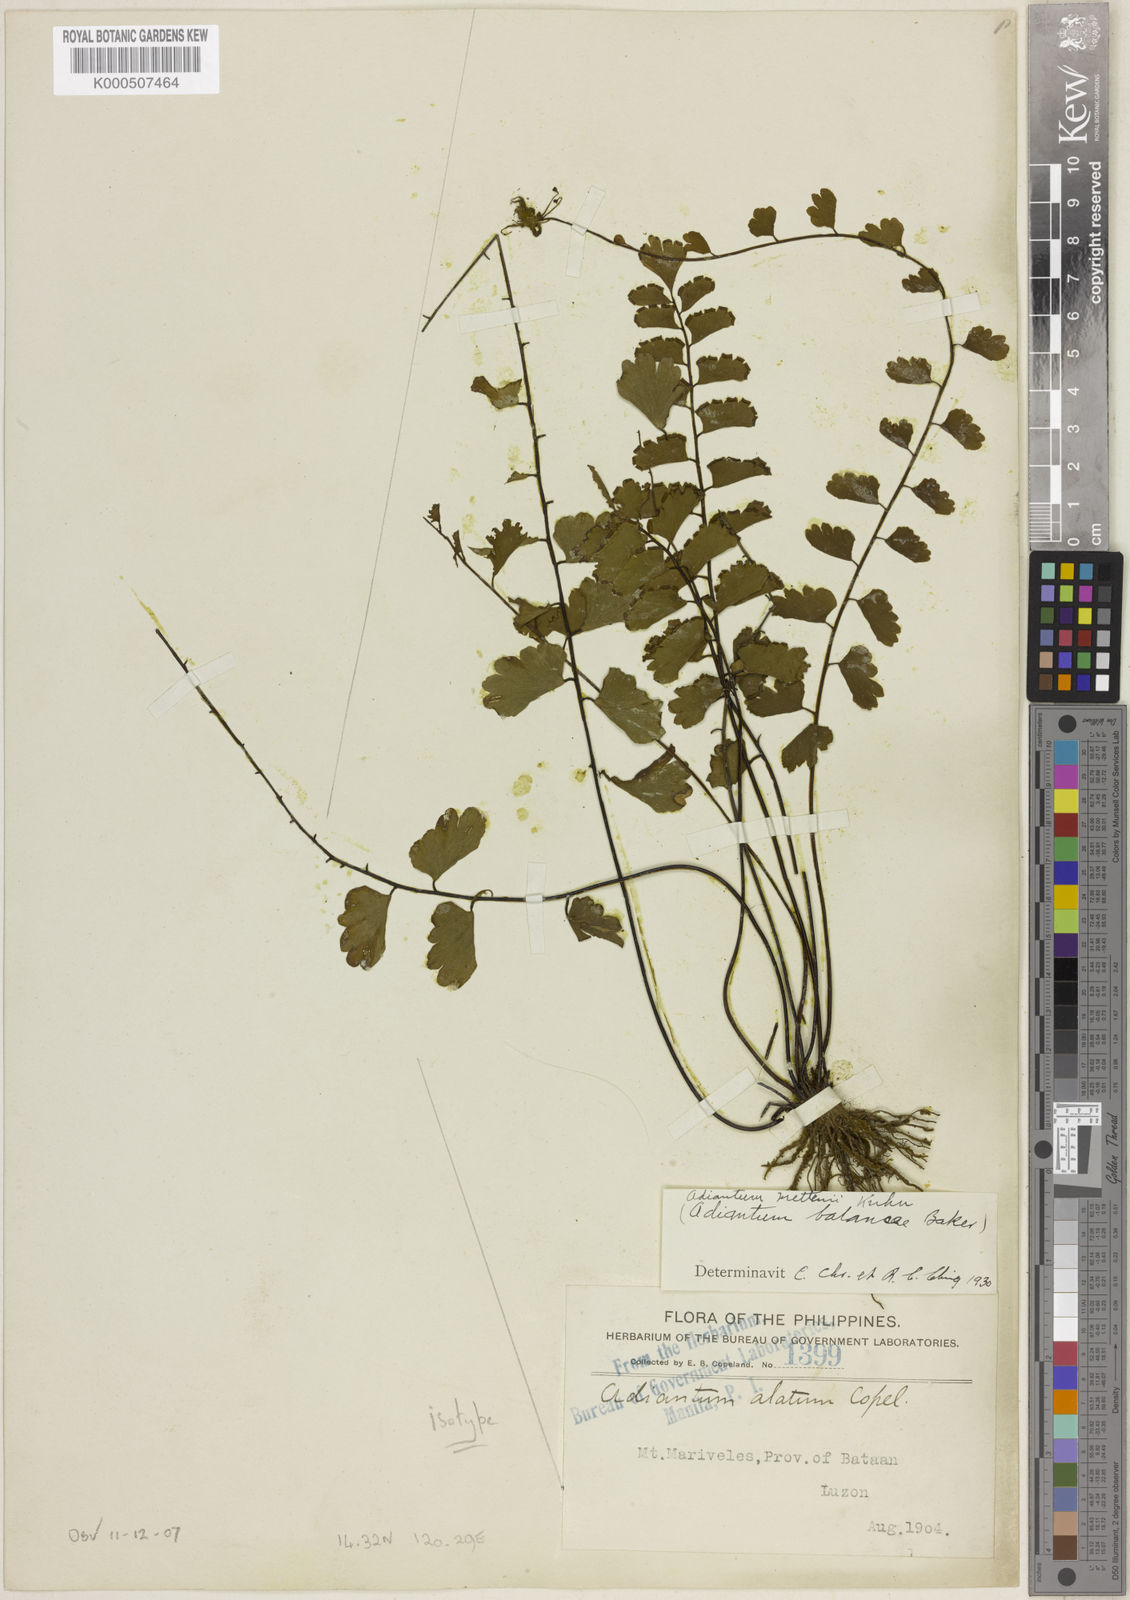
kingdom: Plantae
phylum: Tracheophyta
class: Polypodiopsida
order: Polypodiales
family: Pteridaceae
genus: Adiantum
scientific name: Adiantum soboliferum
